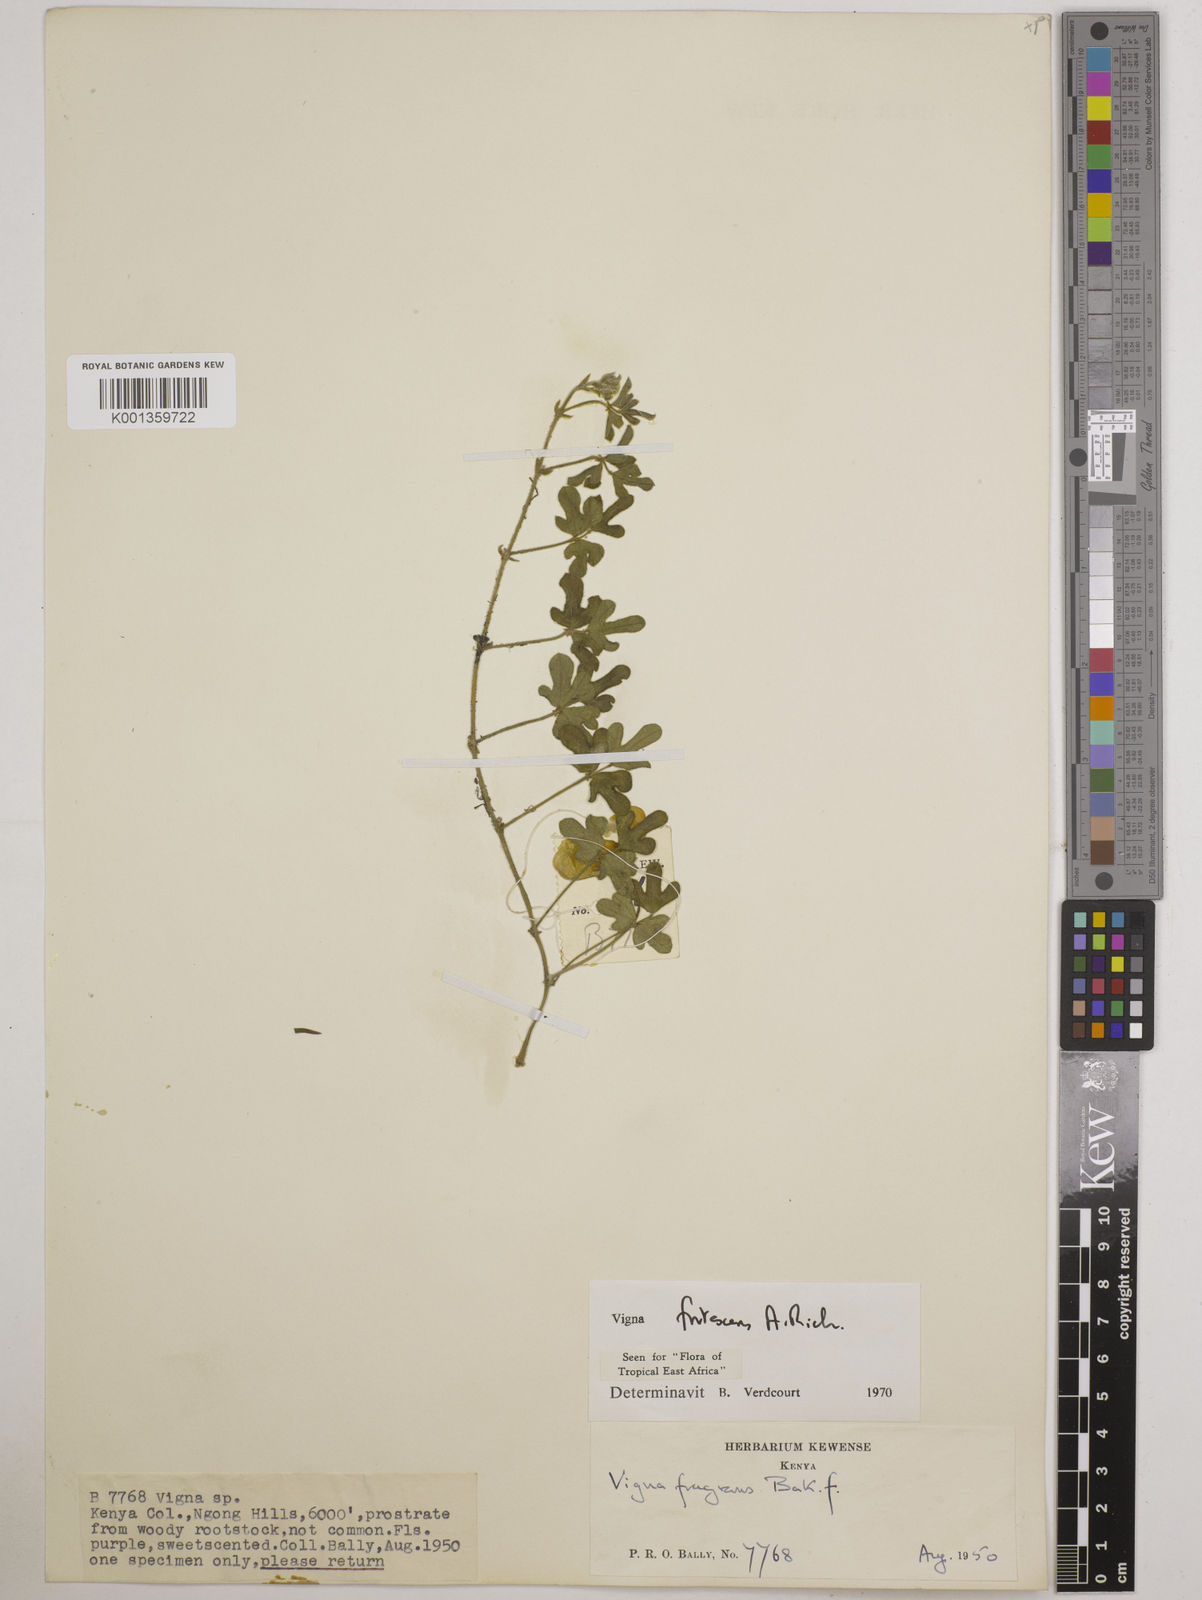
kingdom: Plantae
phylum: Tracheophyta
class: Magnoliopsida
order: Fabales
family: Fabaceae
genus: Vigna
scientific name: Vigna frutescens
